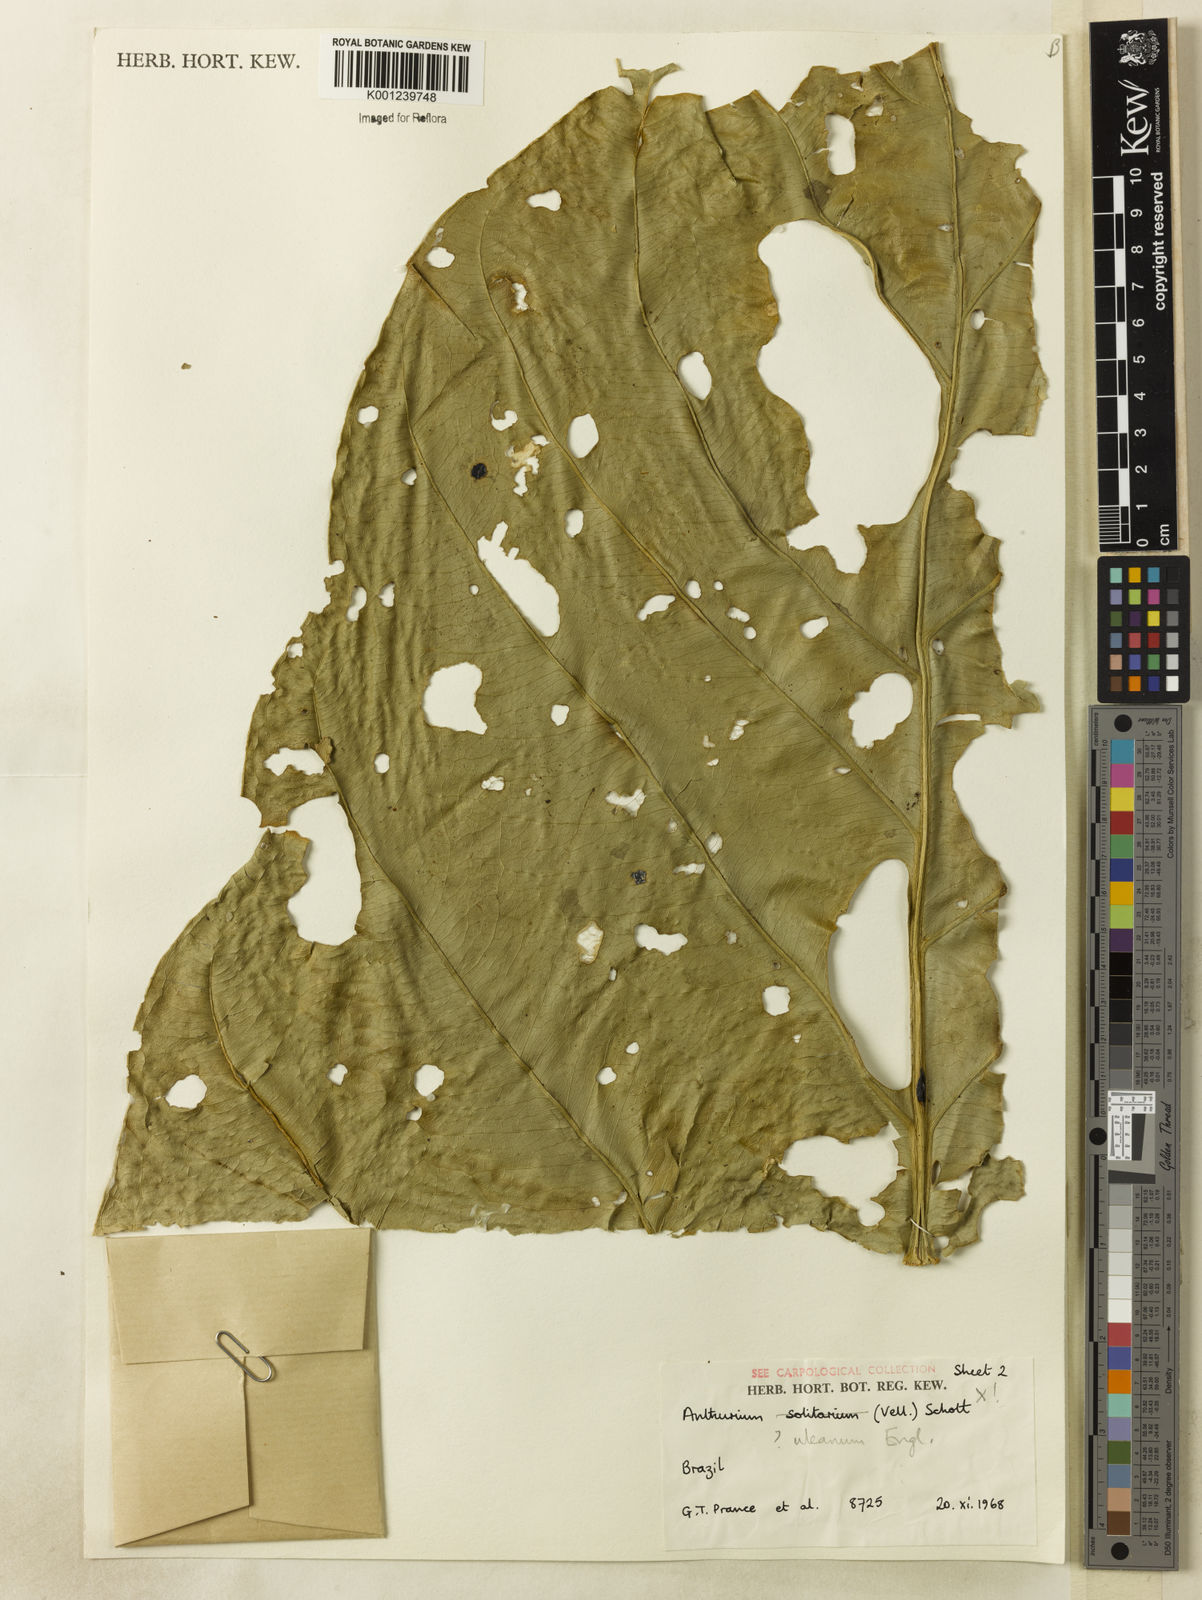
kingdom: Plantae
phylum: Tracheophyta
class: Liliopsida
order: Alismatales
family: Araceae
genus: Anthurium
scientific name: Anthurium uleanum
